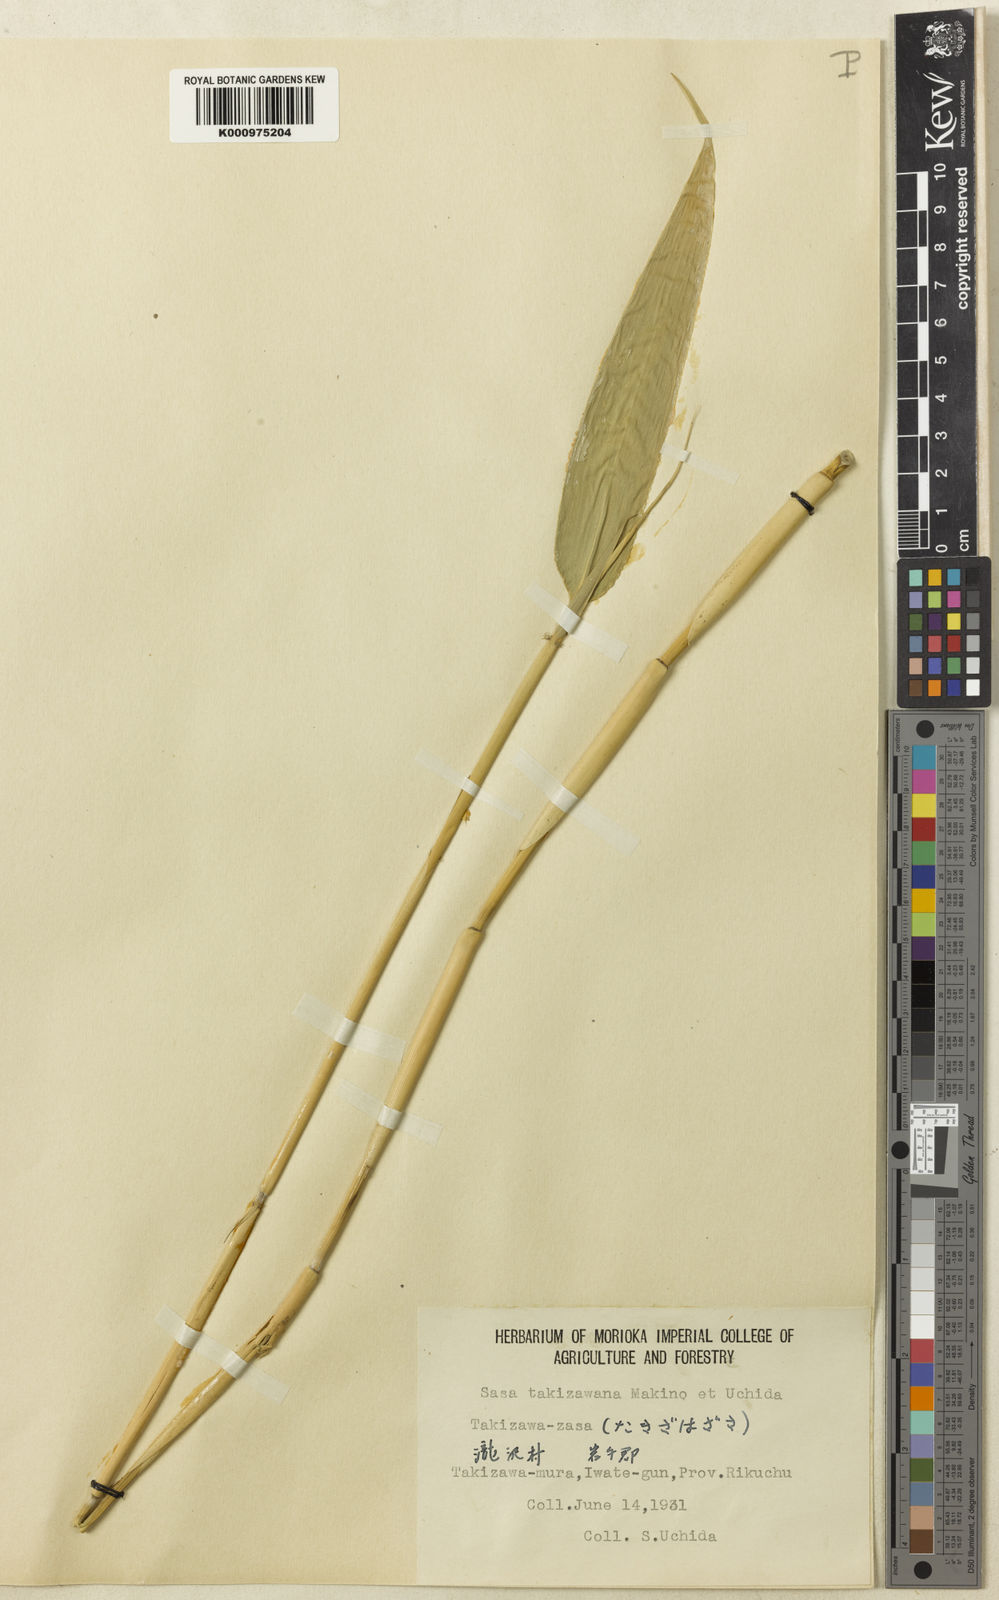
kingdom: Plantae
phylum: Tracheophyta
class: Liliopsida
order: Poales
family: Poaceae
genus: Sasa
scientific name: Sasa takizawana
